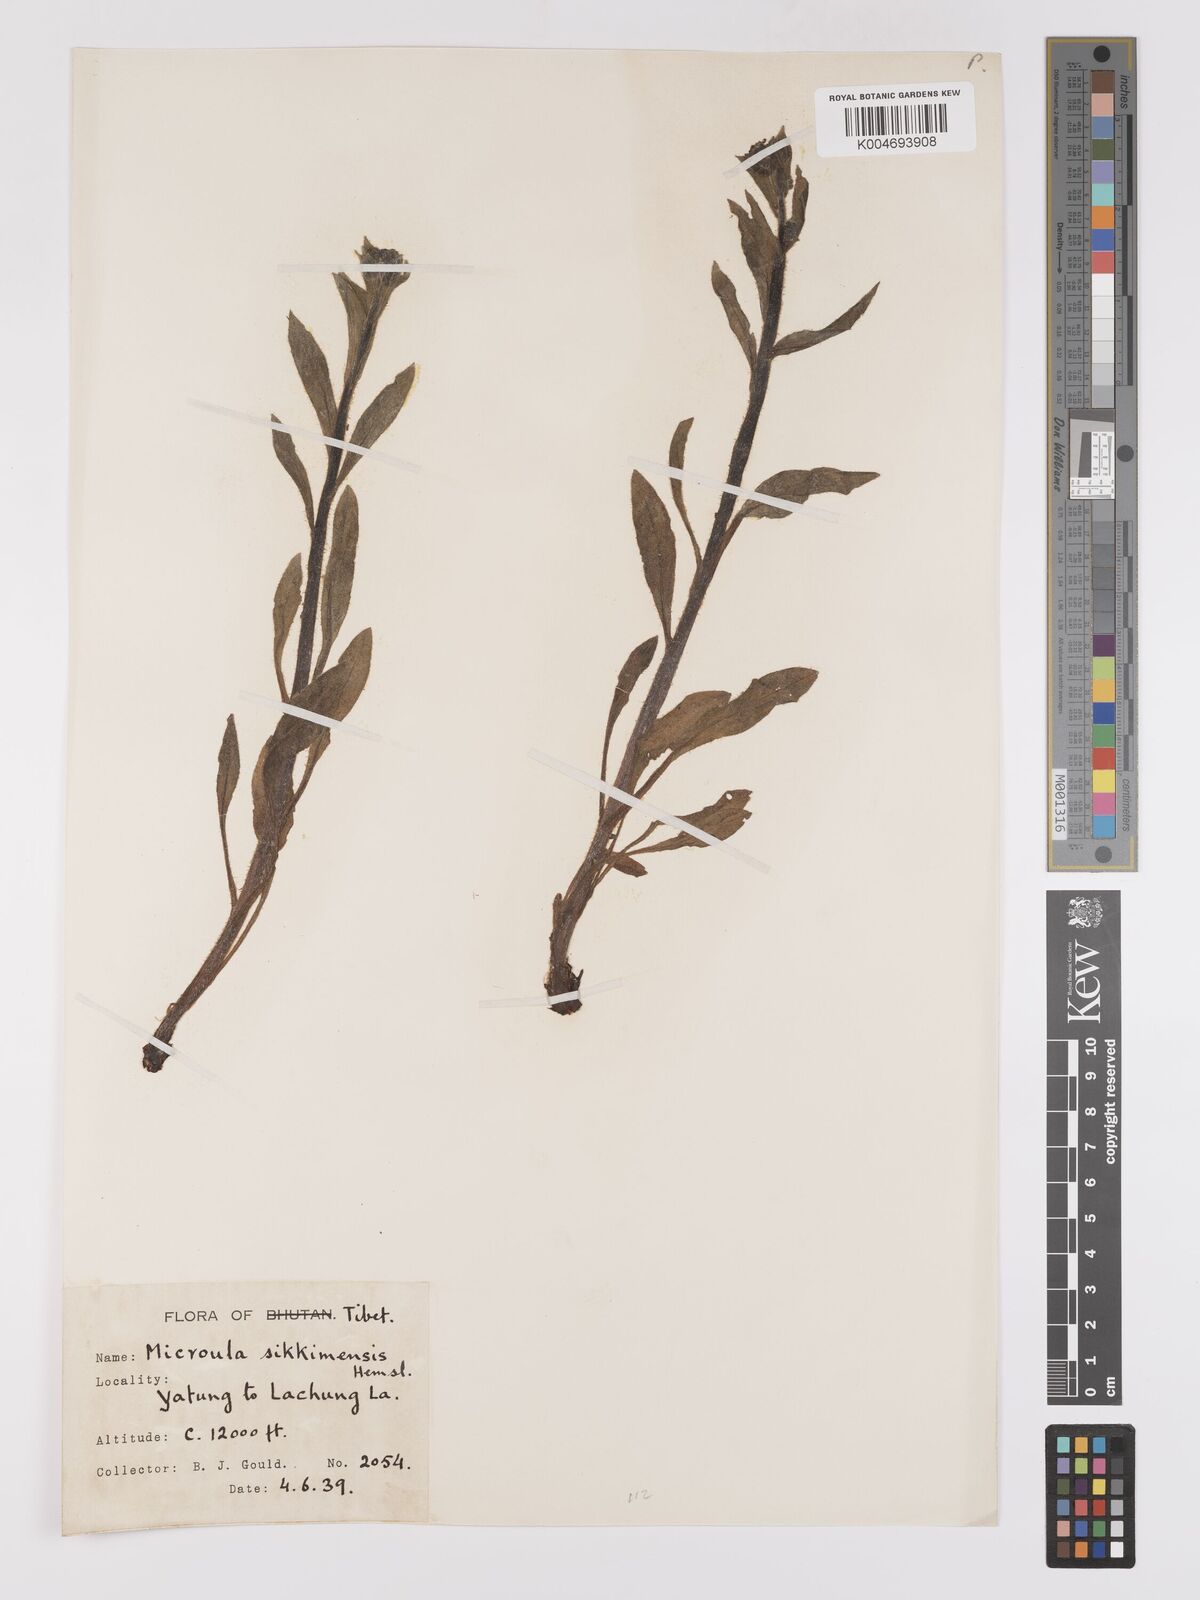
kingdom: Plantae
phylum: Tracheophyta
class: Magnoliopsida
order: Boraginales
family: Boraginaceae
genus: Microula
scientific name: Microula sikkimensis
